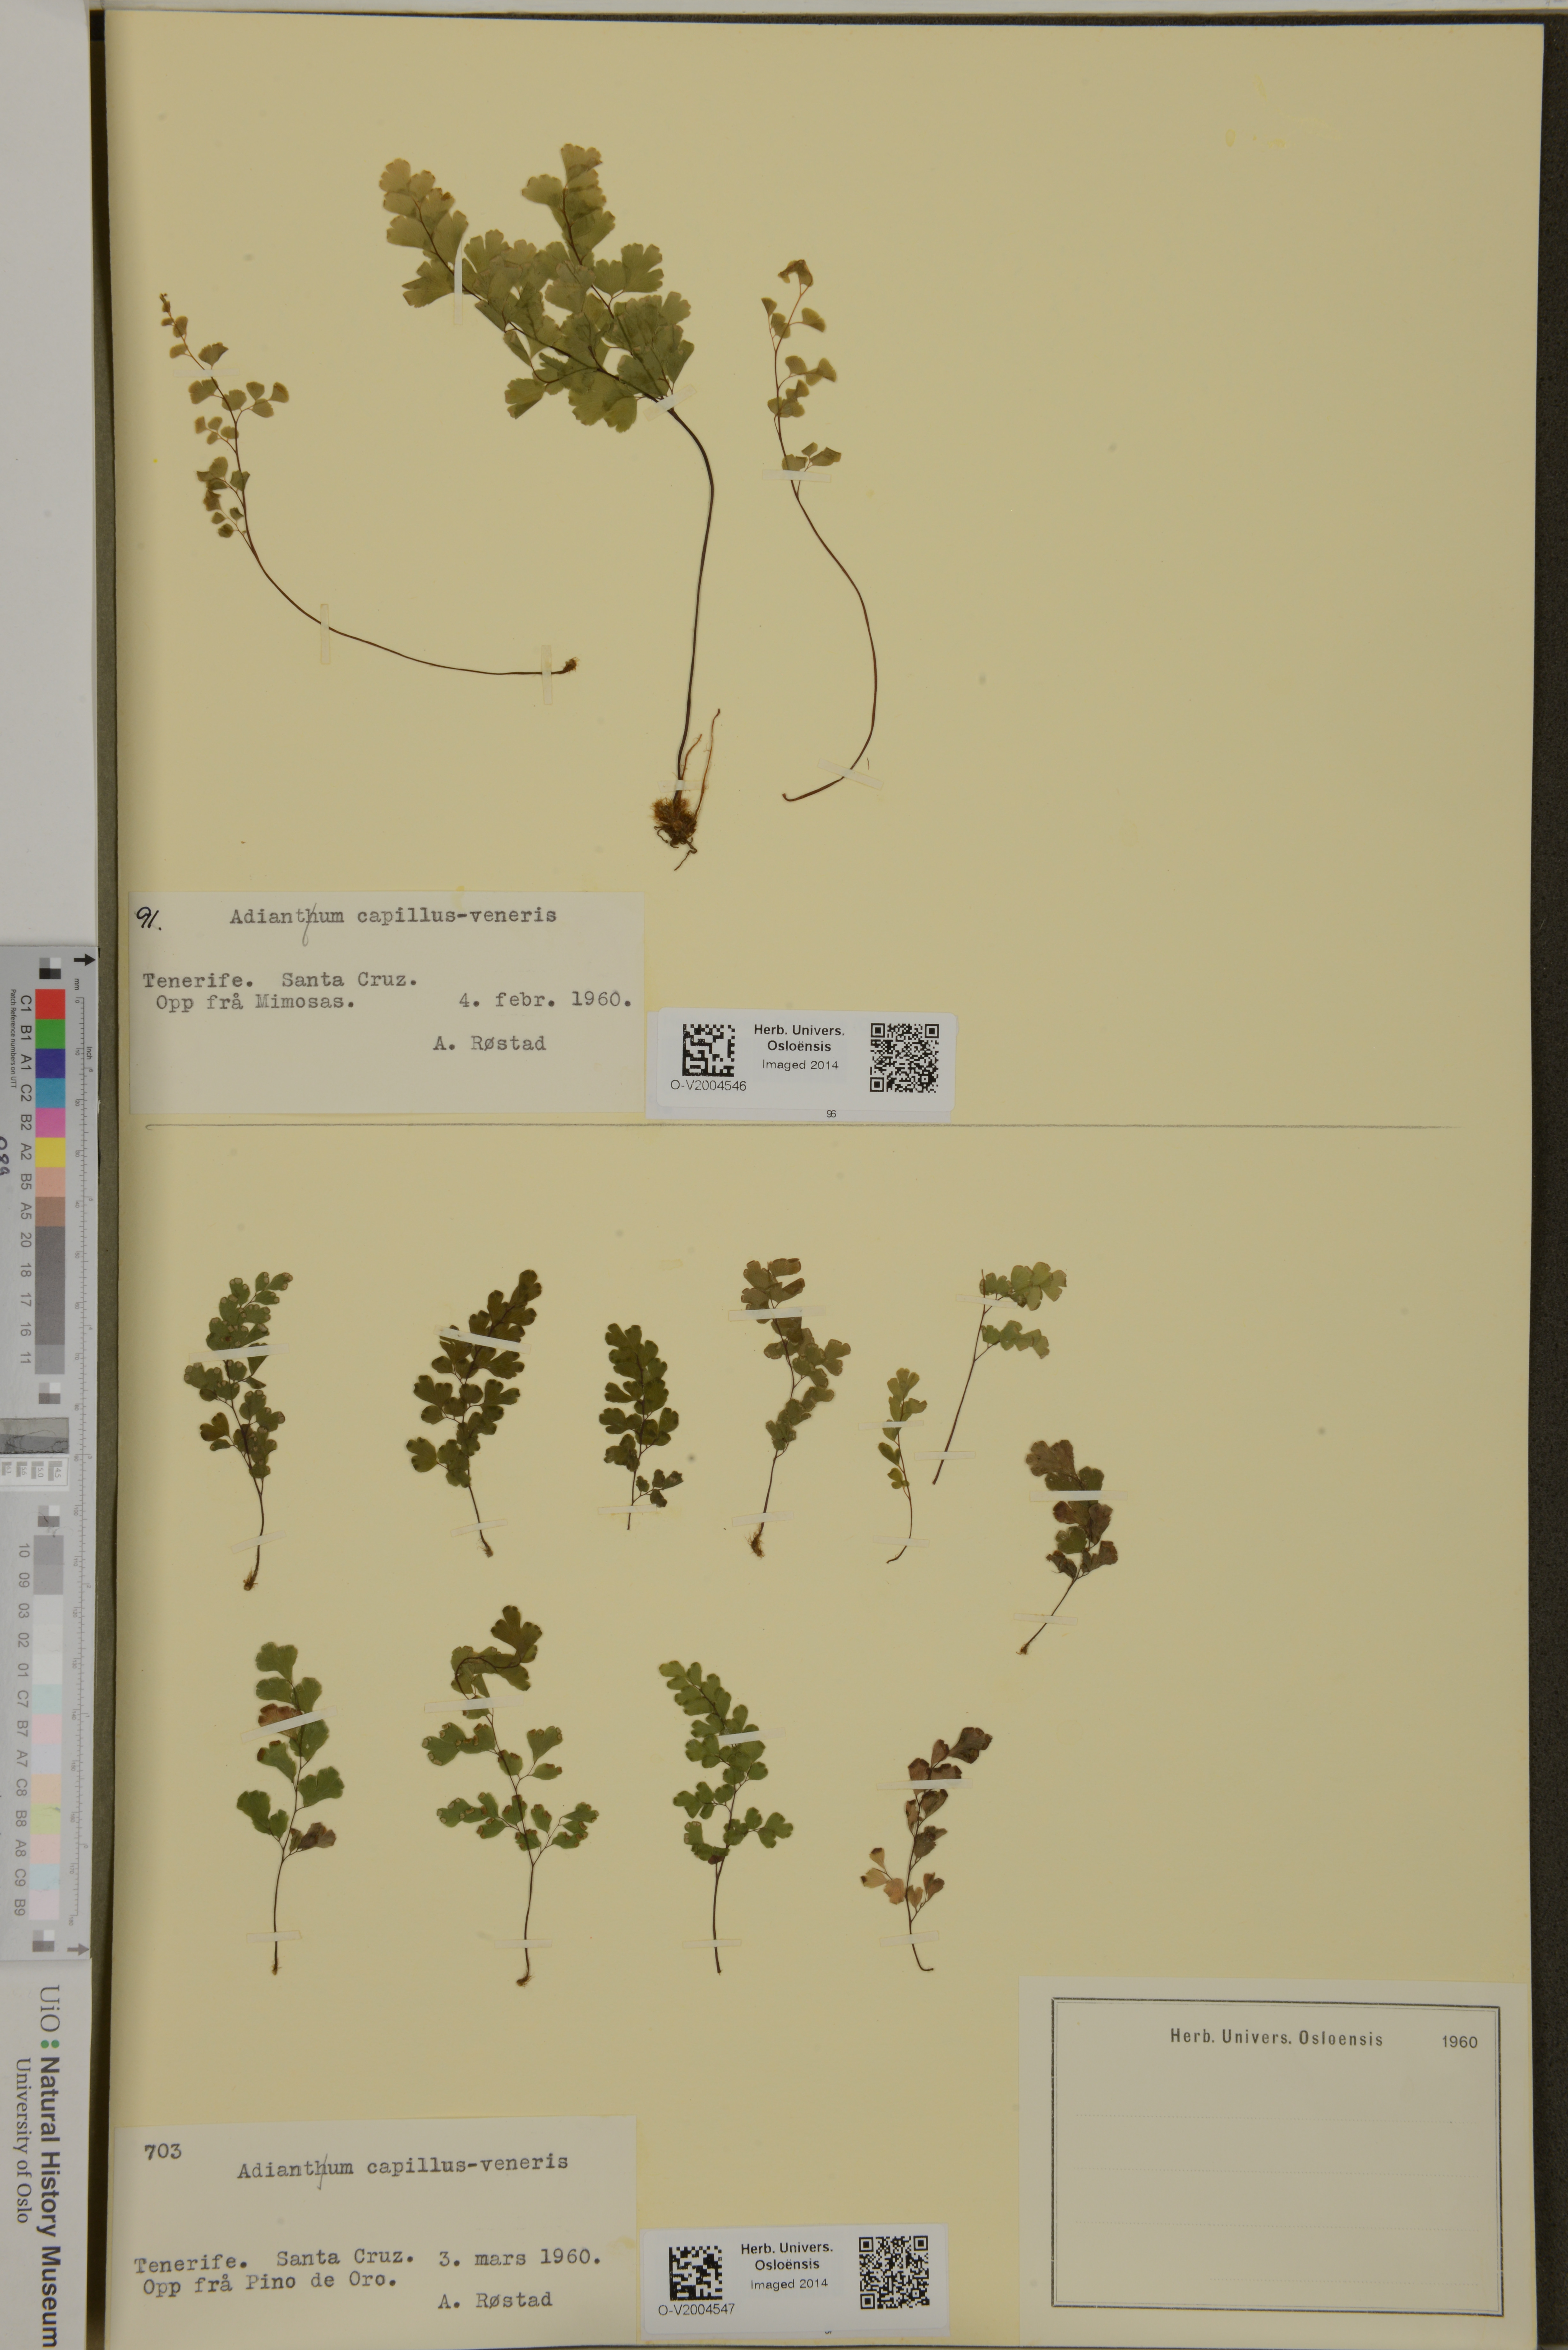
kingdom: Plantae
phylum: Tracheophyta
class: Polypodiopsida
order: Polypodiales
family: Pteridaceae
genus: Adiantum
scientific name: Adiantum capillus-veneris
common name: Maidenhair fern
